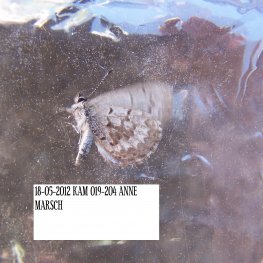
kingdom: Animalia
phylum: Arthropoda
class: Insecta
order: Lepidoptera
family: Lycaenidae
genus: Celastrina
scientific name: Celastrina lucia
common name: Northern Spring Azure
